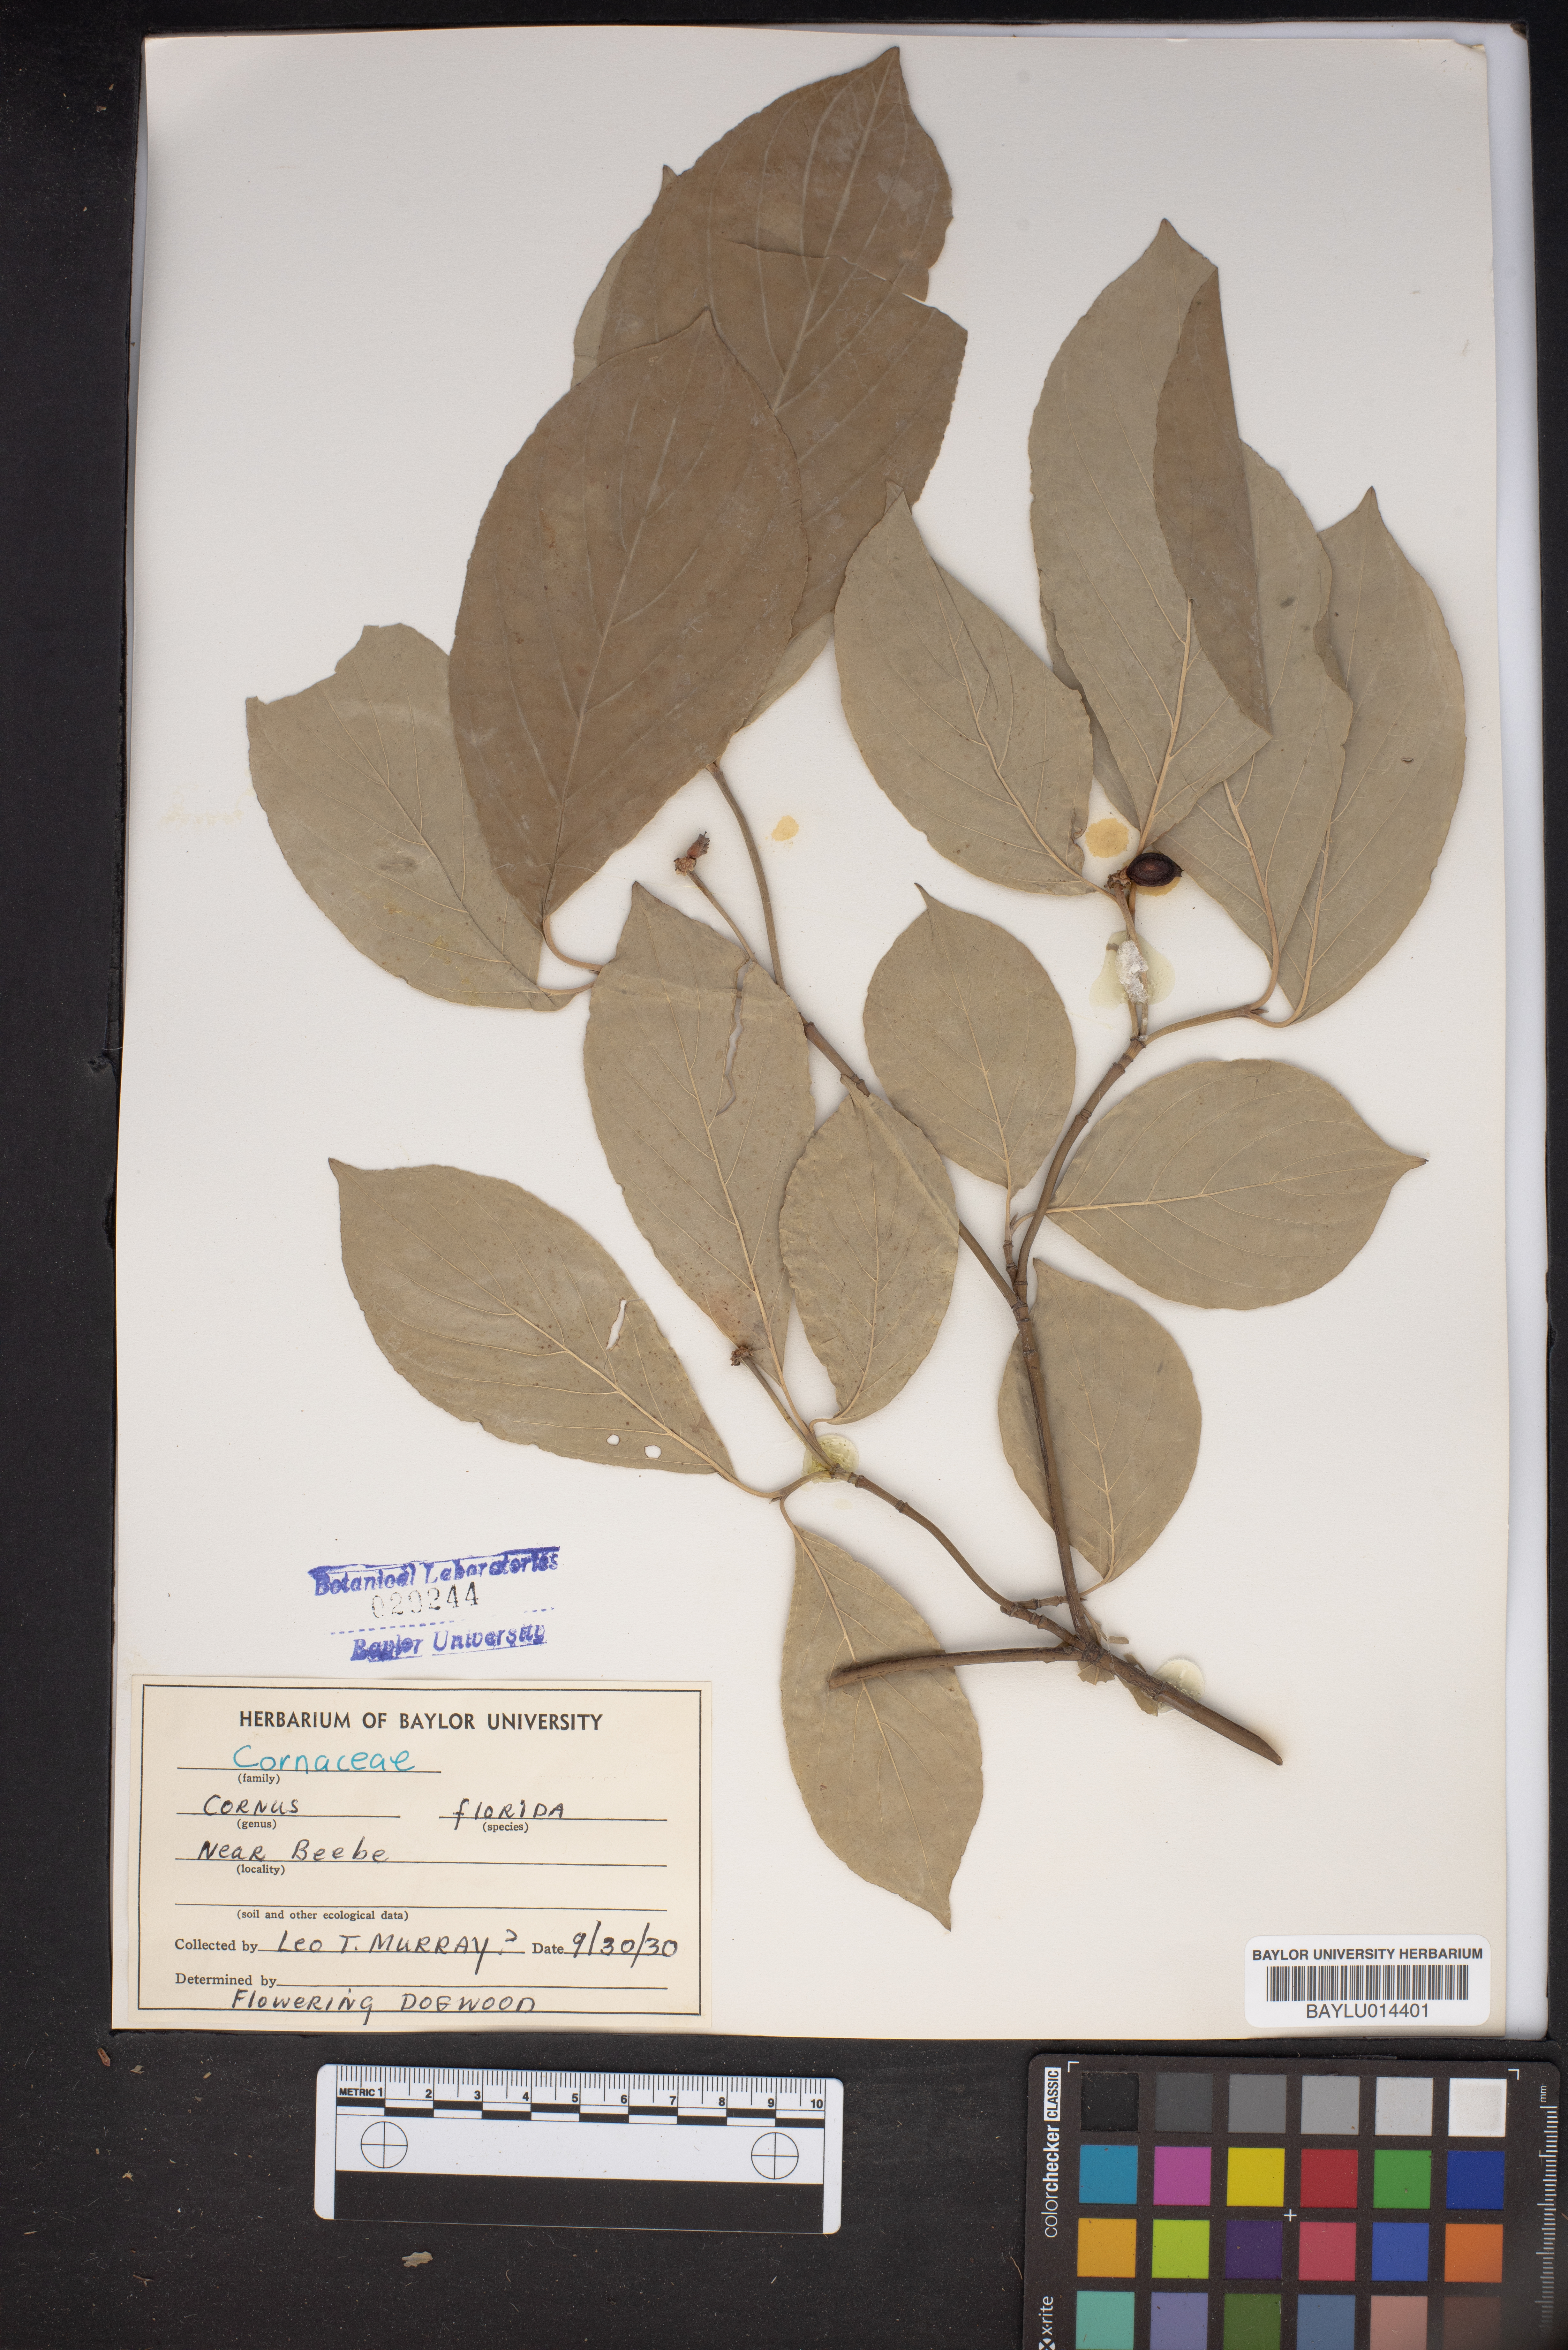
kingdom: Plantae
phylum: Tracheophyta
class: Magnoliopsida
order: Cornales
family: Cornaceae
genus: Cornus
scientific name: Cornus florida
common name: Flowering dogwood
